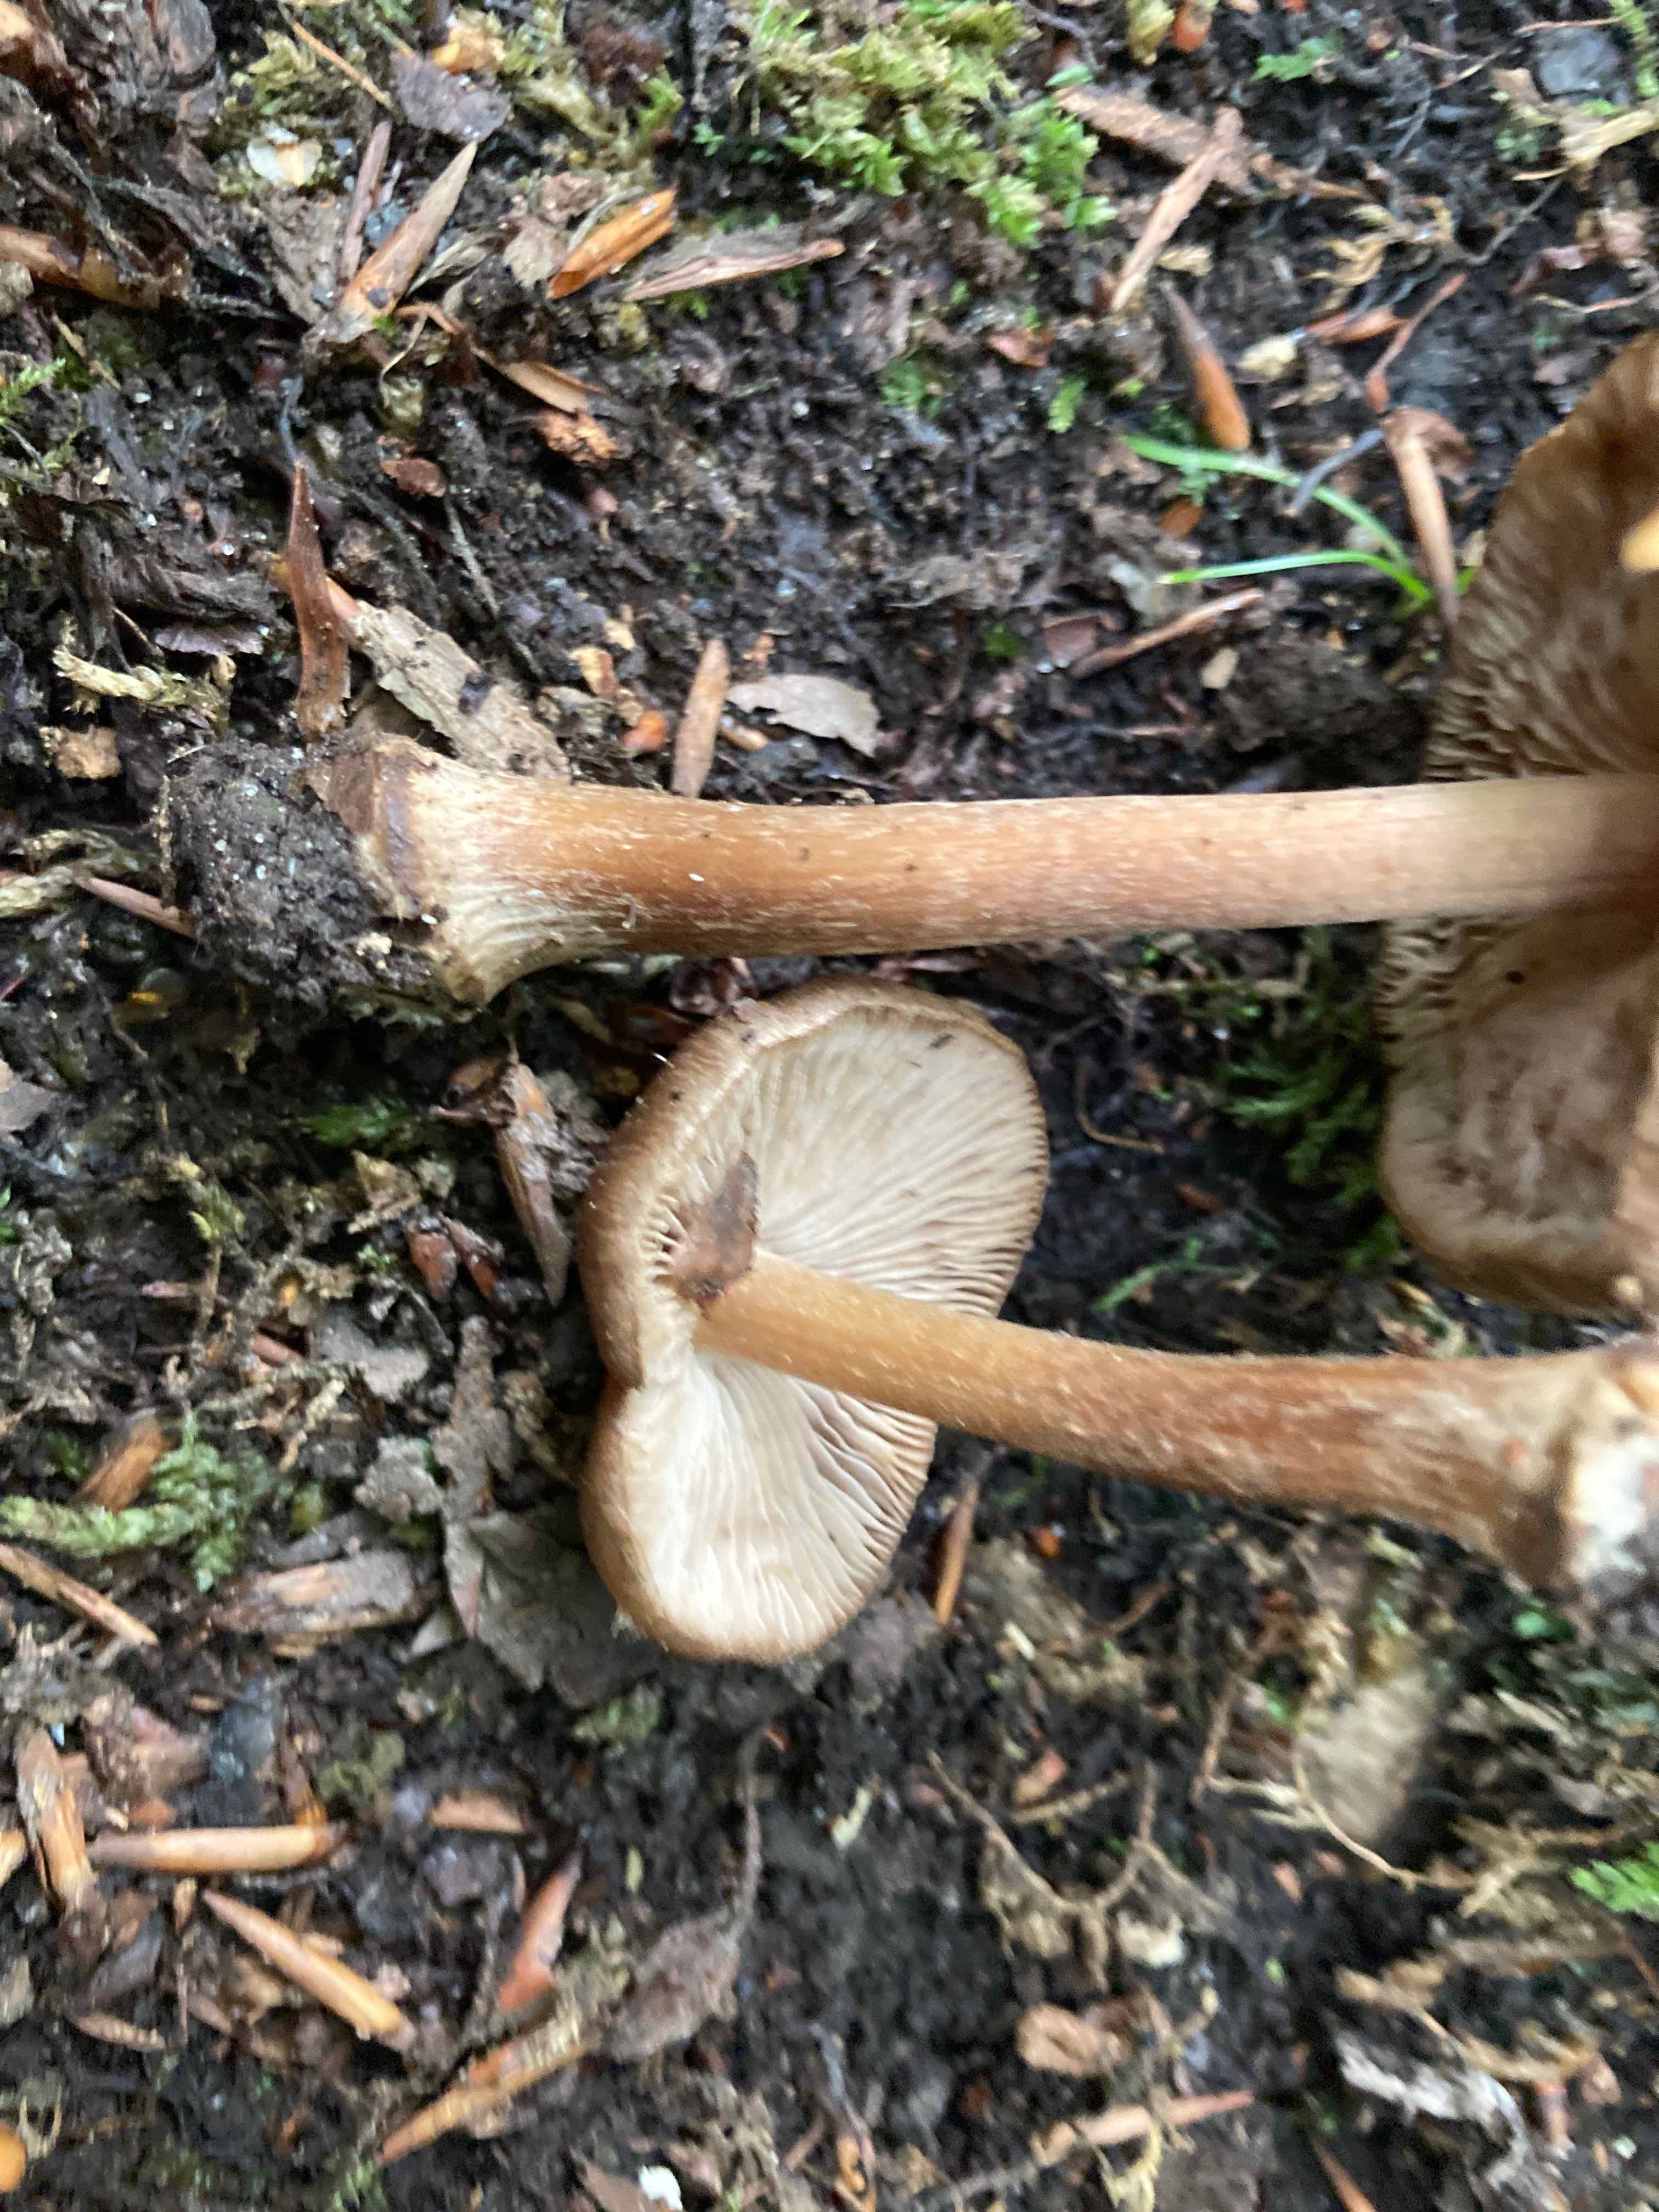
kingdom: Fungi
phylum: Basidiomycota
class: Agaricomycetes
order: Agaricales
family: Inocybaceae
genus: Inocybe
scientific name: Inocybe asterospora
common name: stjernesporet trævlhat
